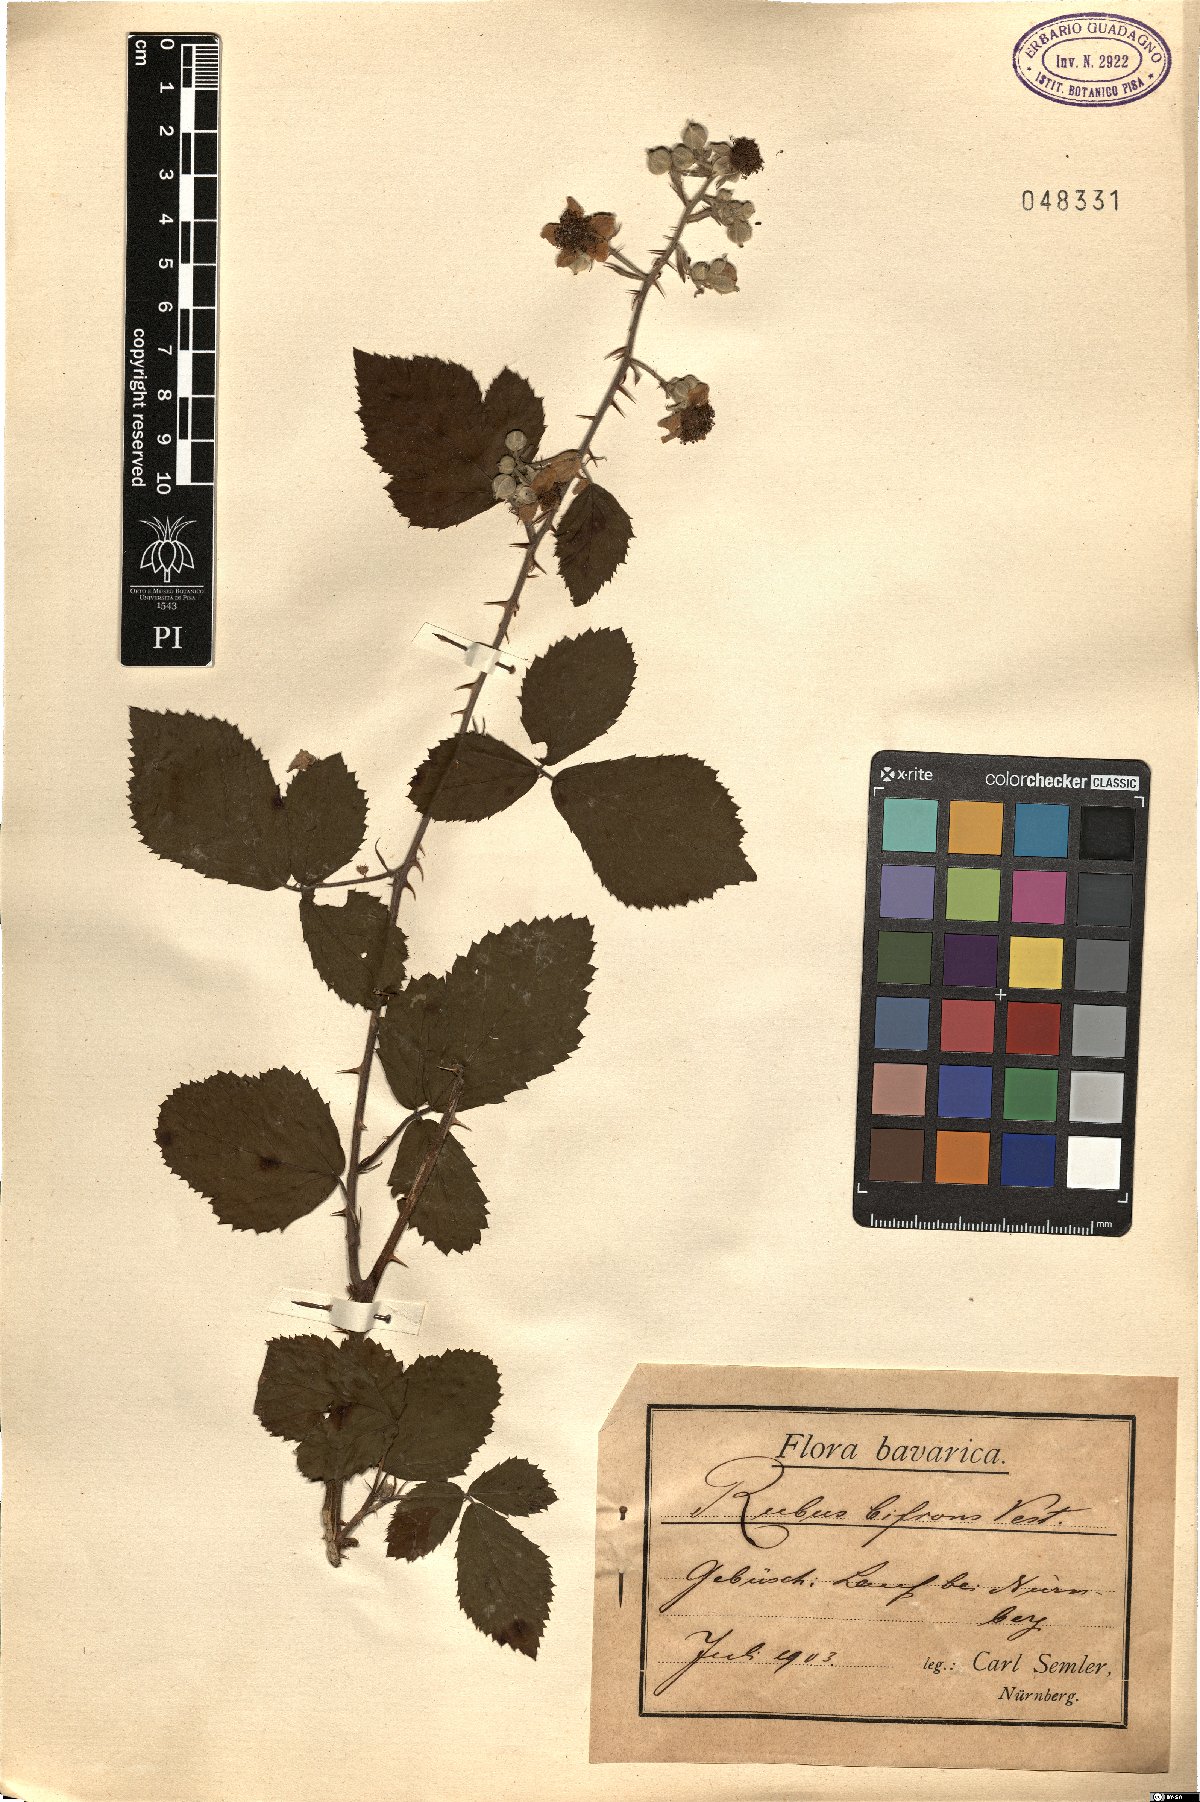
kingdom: Plantae
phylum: Tracheophyta
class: Magnoliopsida
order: Rosales
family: Rosaceae
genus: Rubus
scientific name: Rubus bifrons
